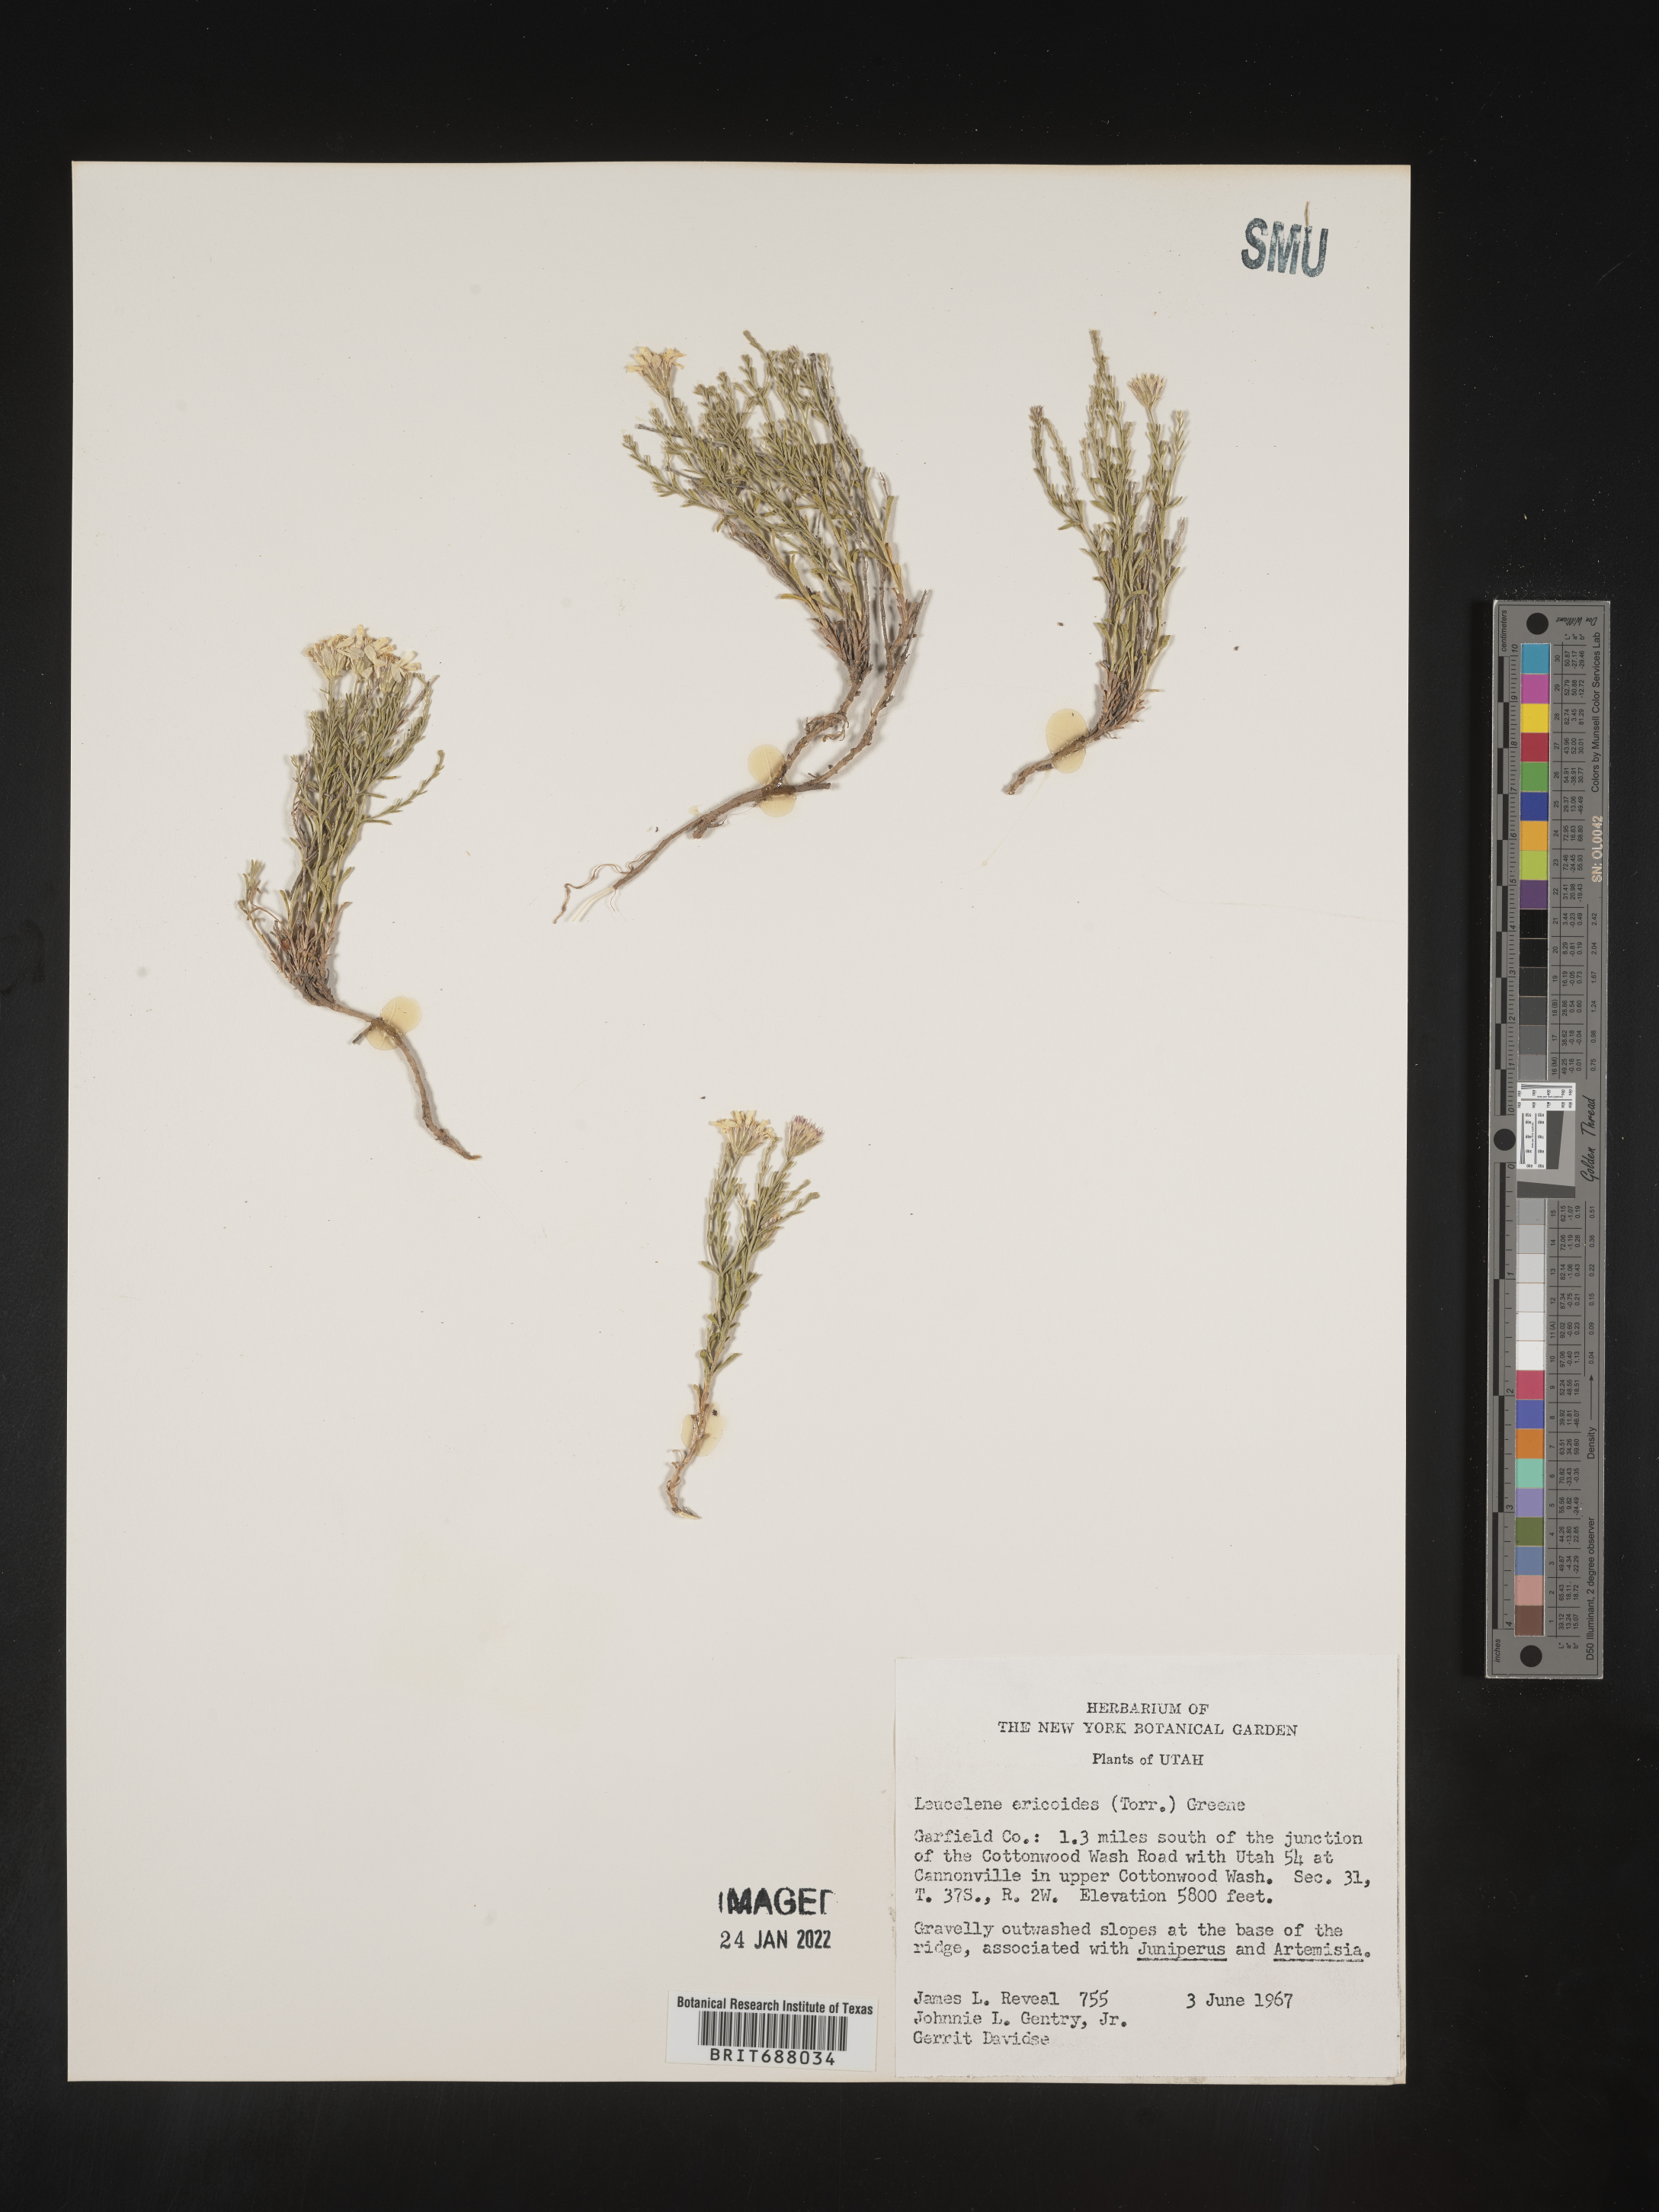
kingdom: Plantae
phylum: Tracheophyta
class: Magnoliopsida
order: Asterales
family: Asteraceae
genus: Chaetopappa
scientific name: Chaetopappa ericoides
